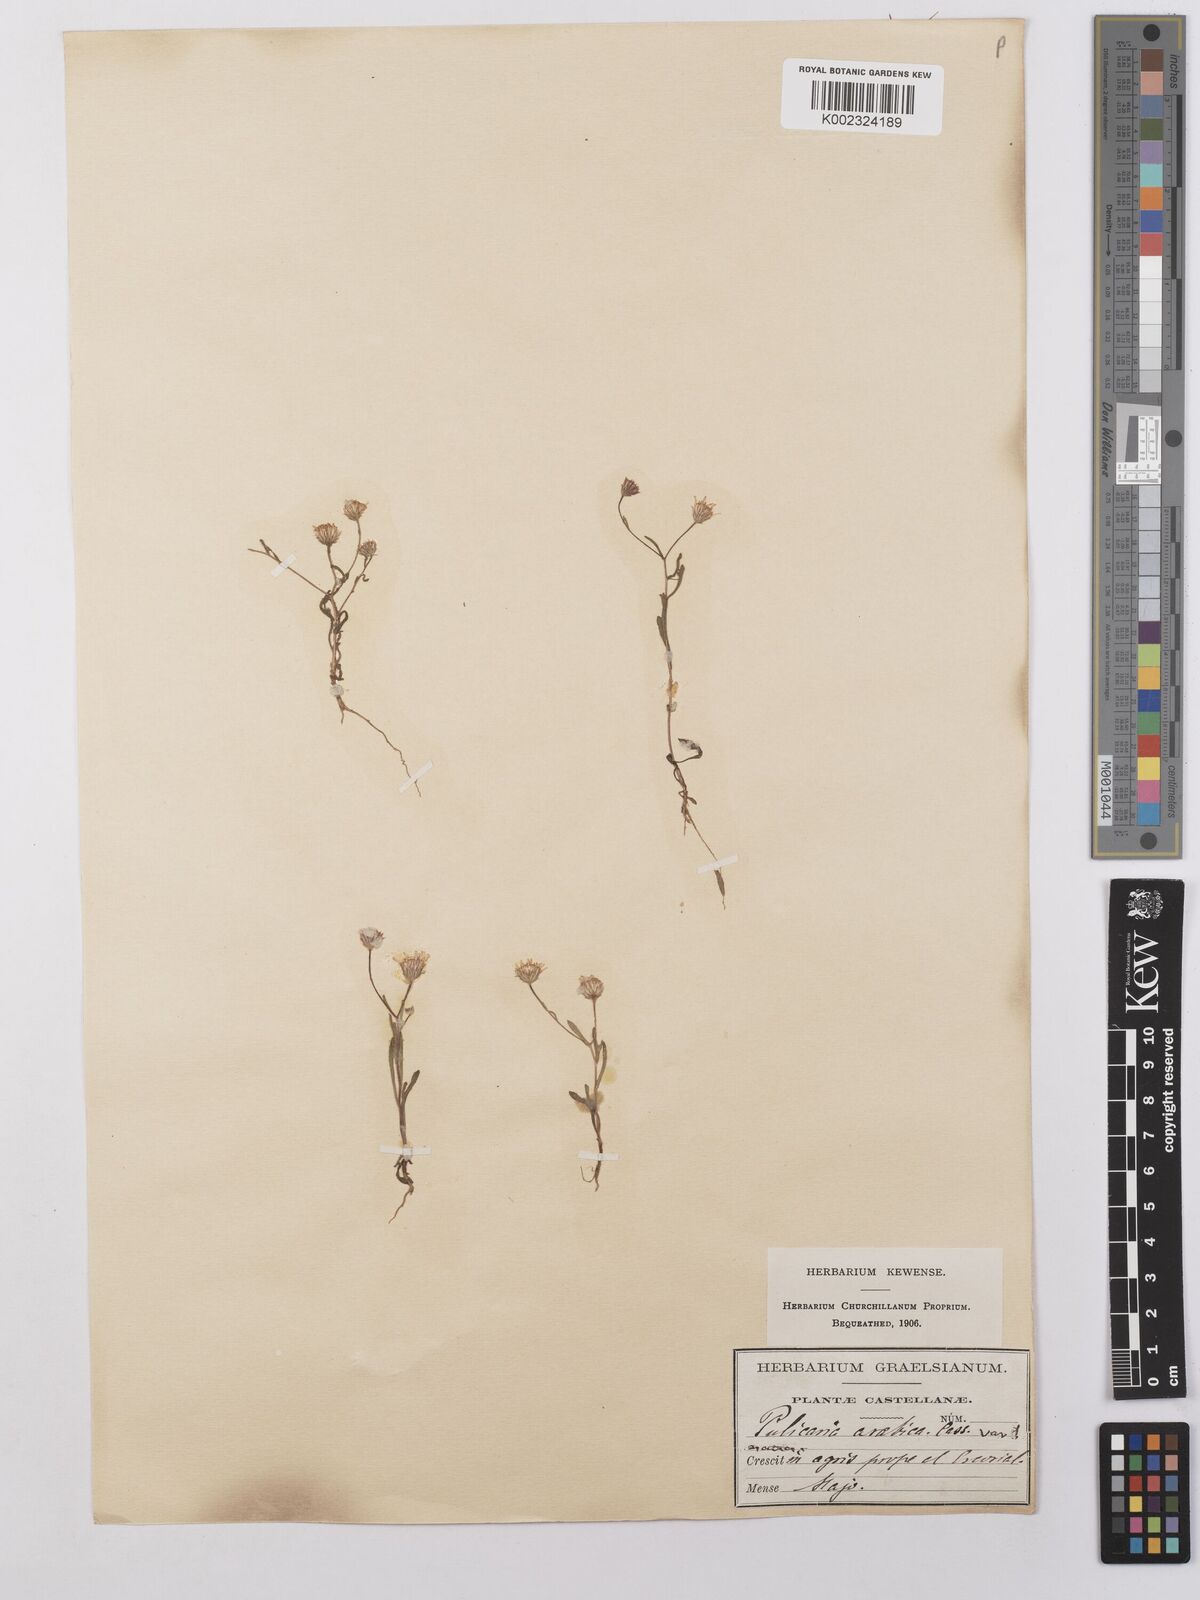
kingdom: Plantae
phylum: Tracheophyta
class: Magnoliopsida
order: Asterales
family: Asteraceae
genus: Pulicaria
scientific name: Pulicaria arabica
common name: Ladies' false fleabane
